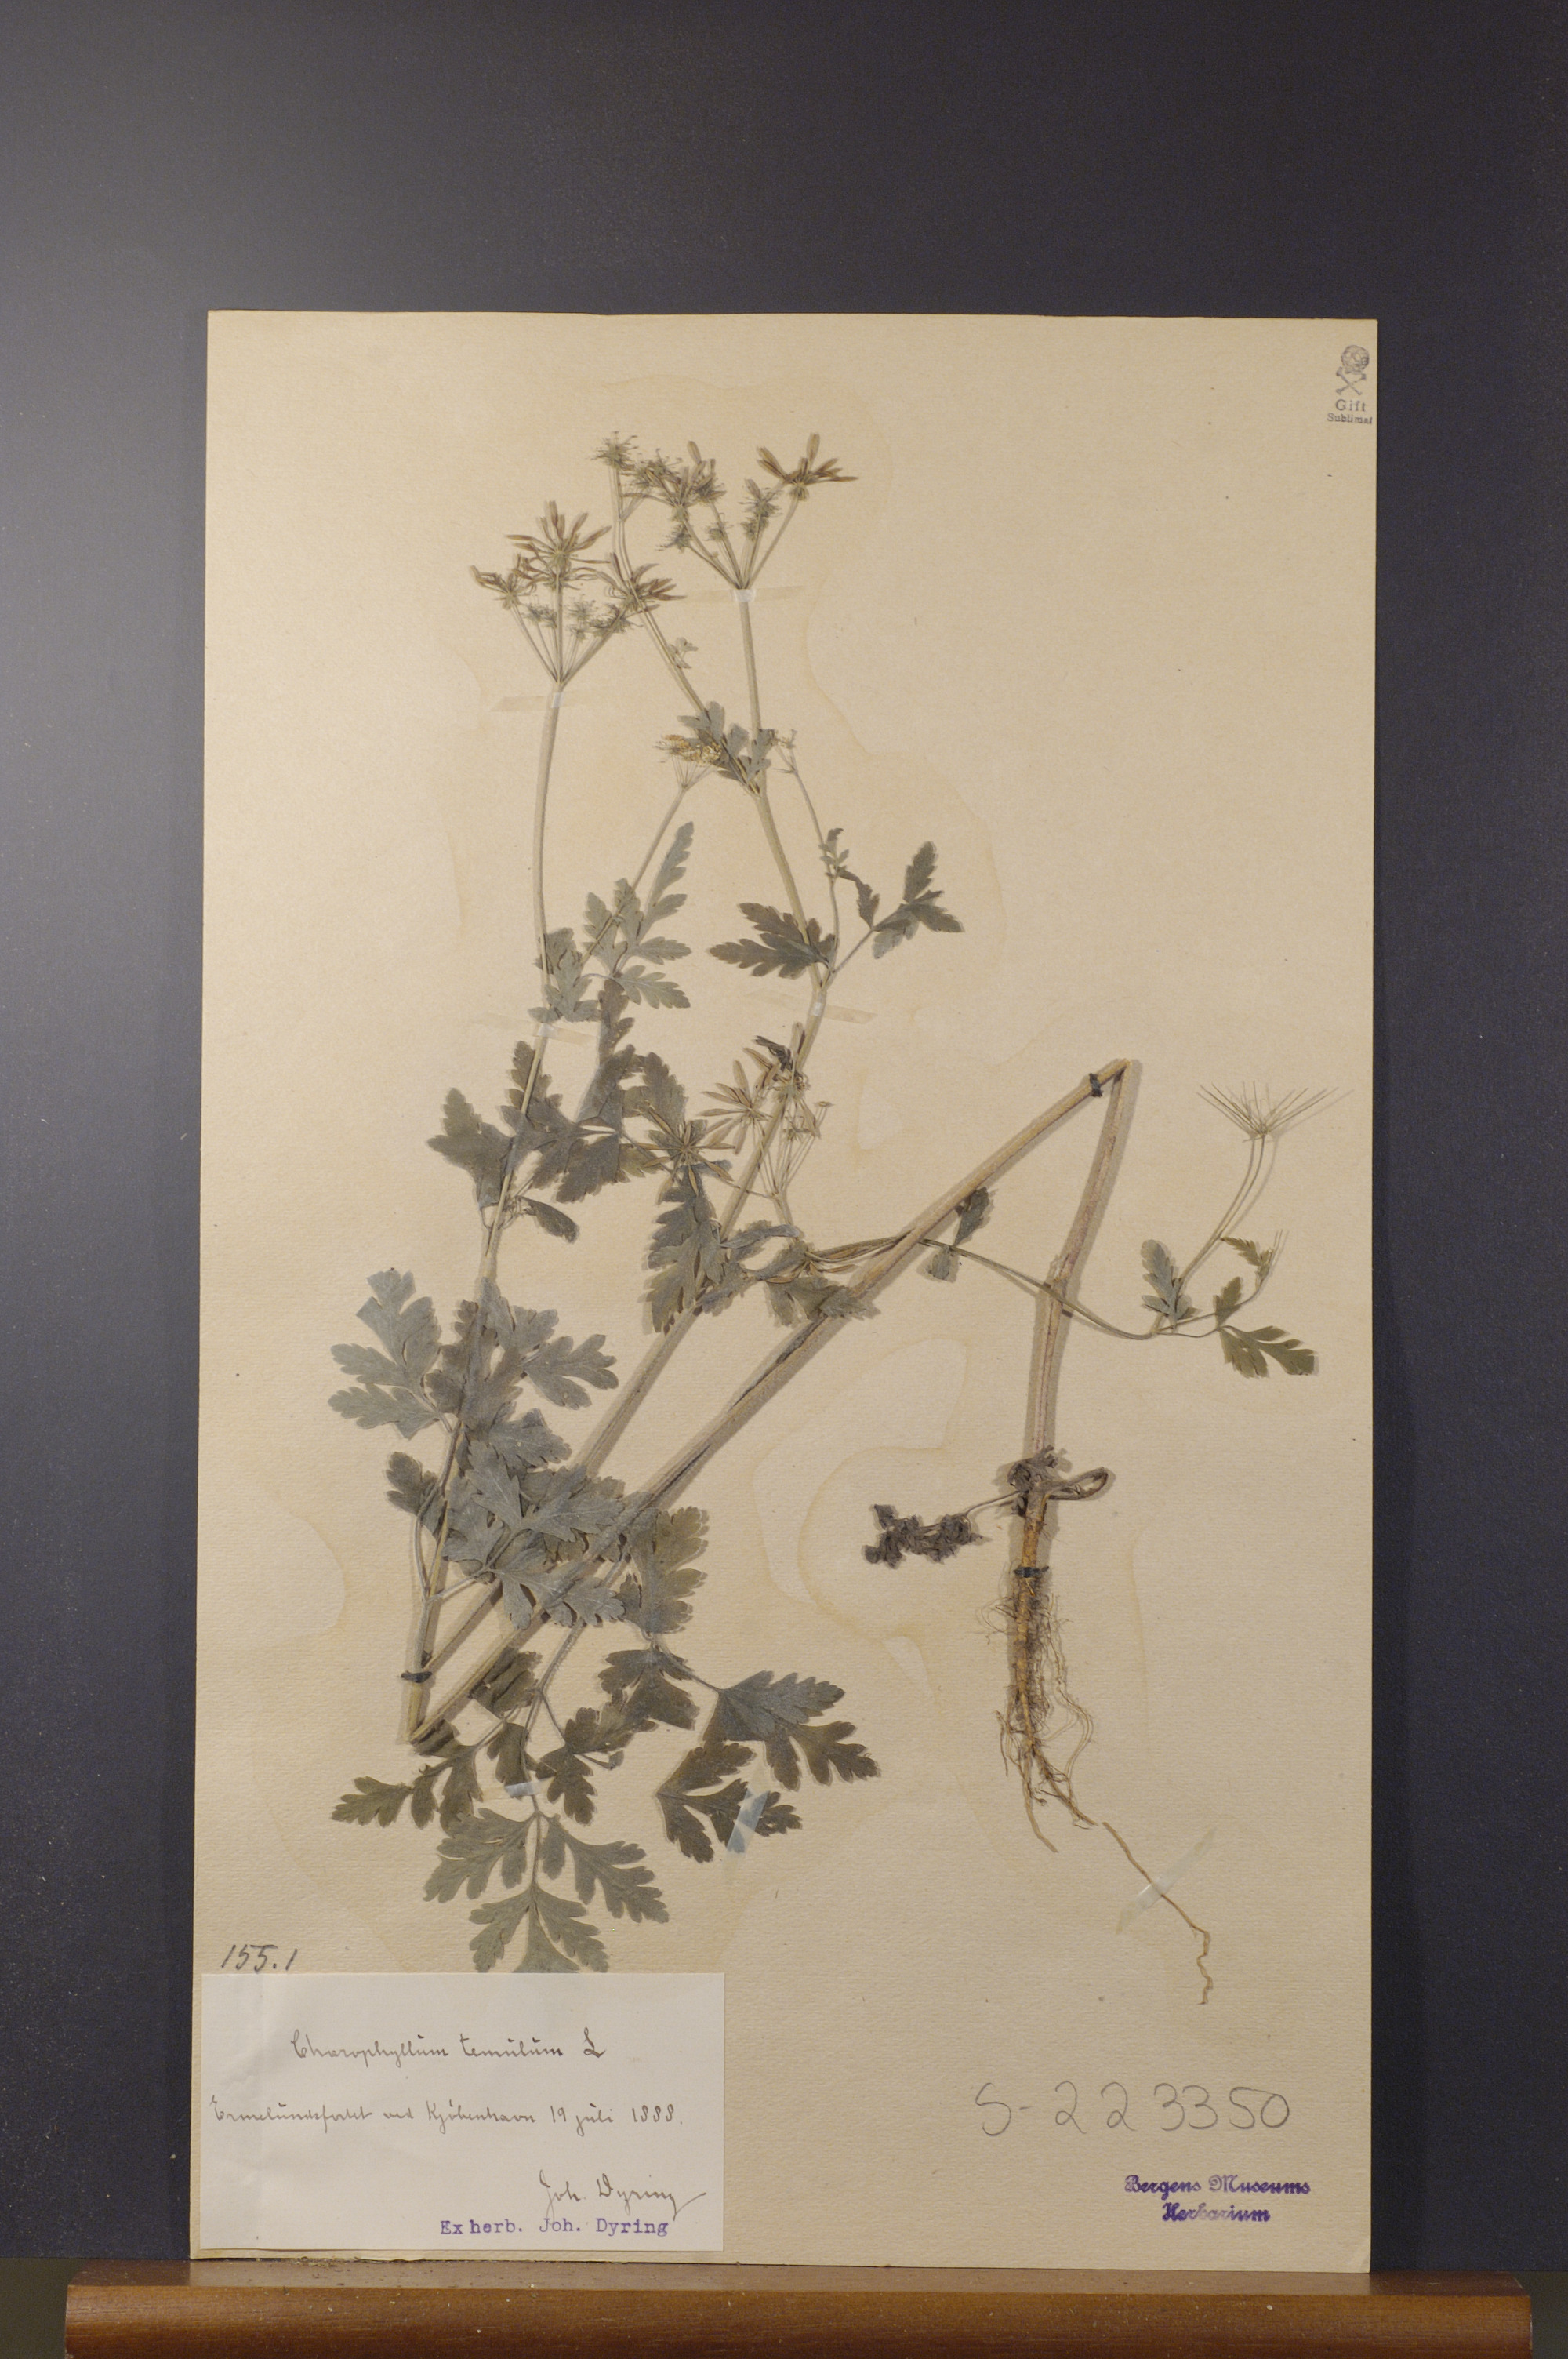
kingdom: Plantae
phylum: Tracheophyta
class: Magnoliopsida
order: Apiales
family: Apiaceae
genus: Chaerophyllum
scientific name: Chaerophyllum temulum
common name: Rough chervil
